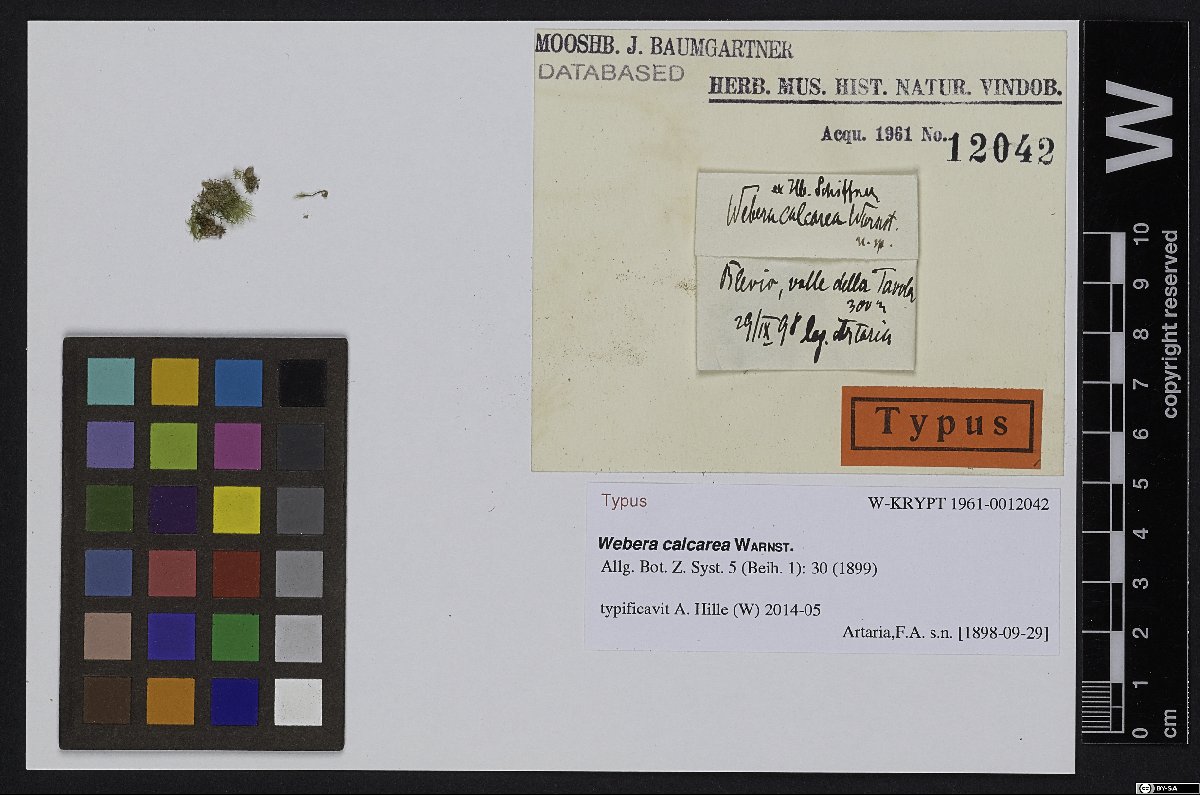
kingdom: Plantae
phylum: Bryophyta
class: Bryopsida
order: Bryales
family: Mniaceae
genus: Pohlia
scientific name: Pohlia wahlenbergii
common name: Wahlenberg's nodding moss
